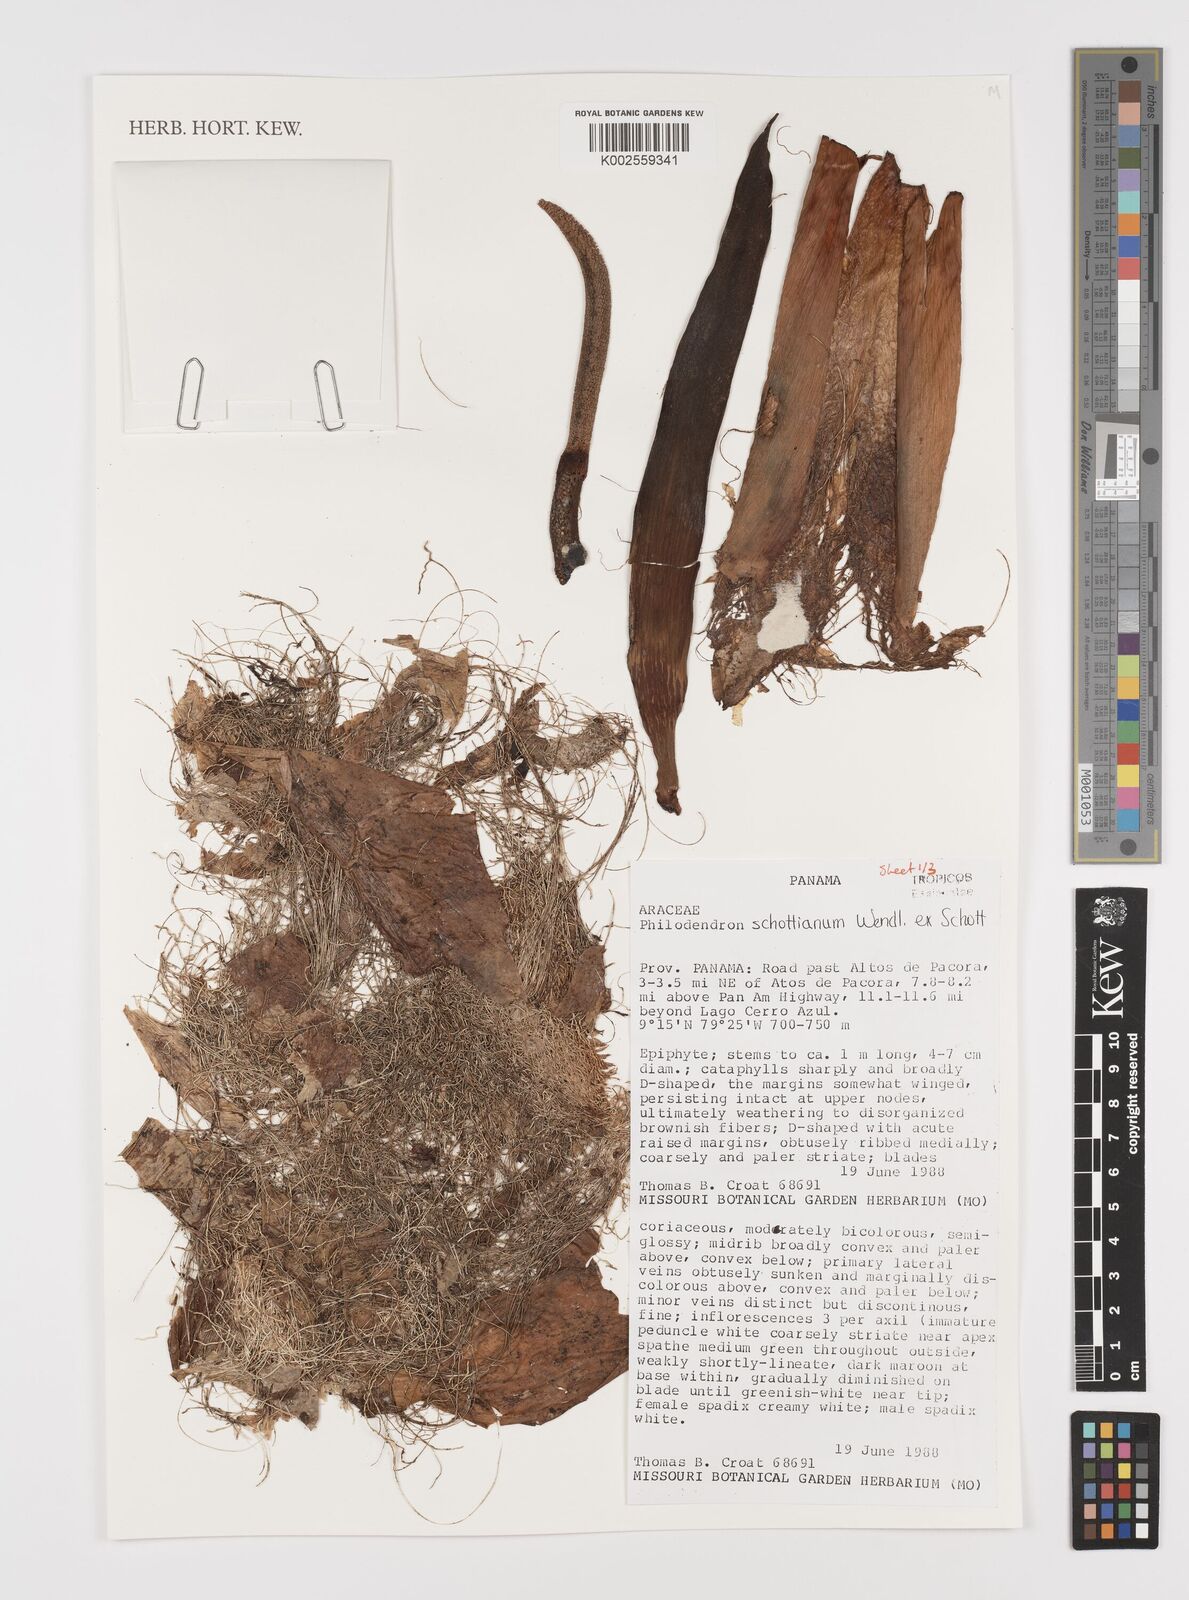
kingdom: Plantae
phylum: Tracheophyta
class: Liliopsida
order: Alismatales
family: Araceae
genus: Philodendron
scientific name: Philodendron schottianum
